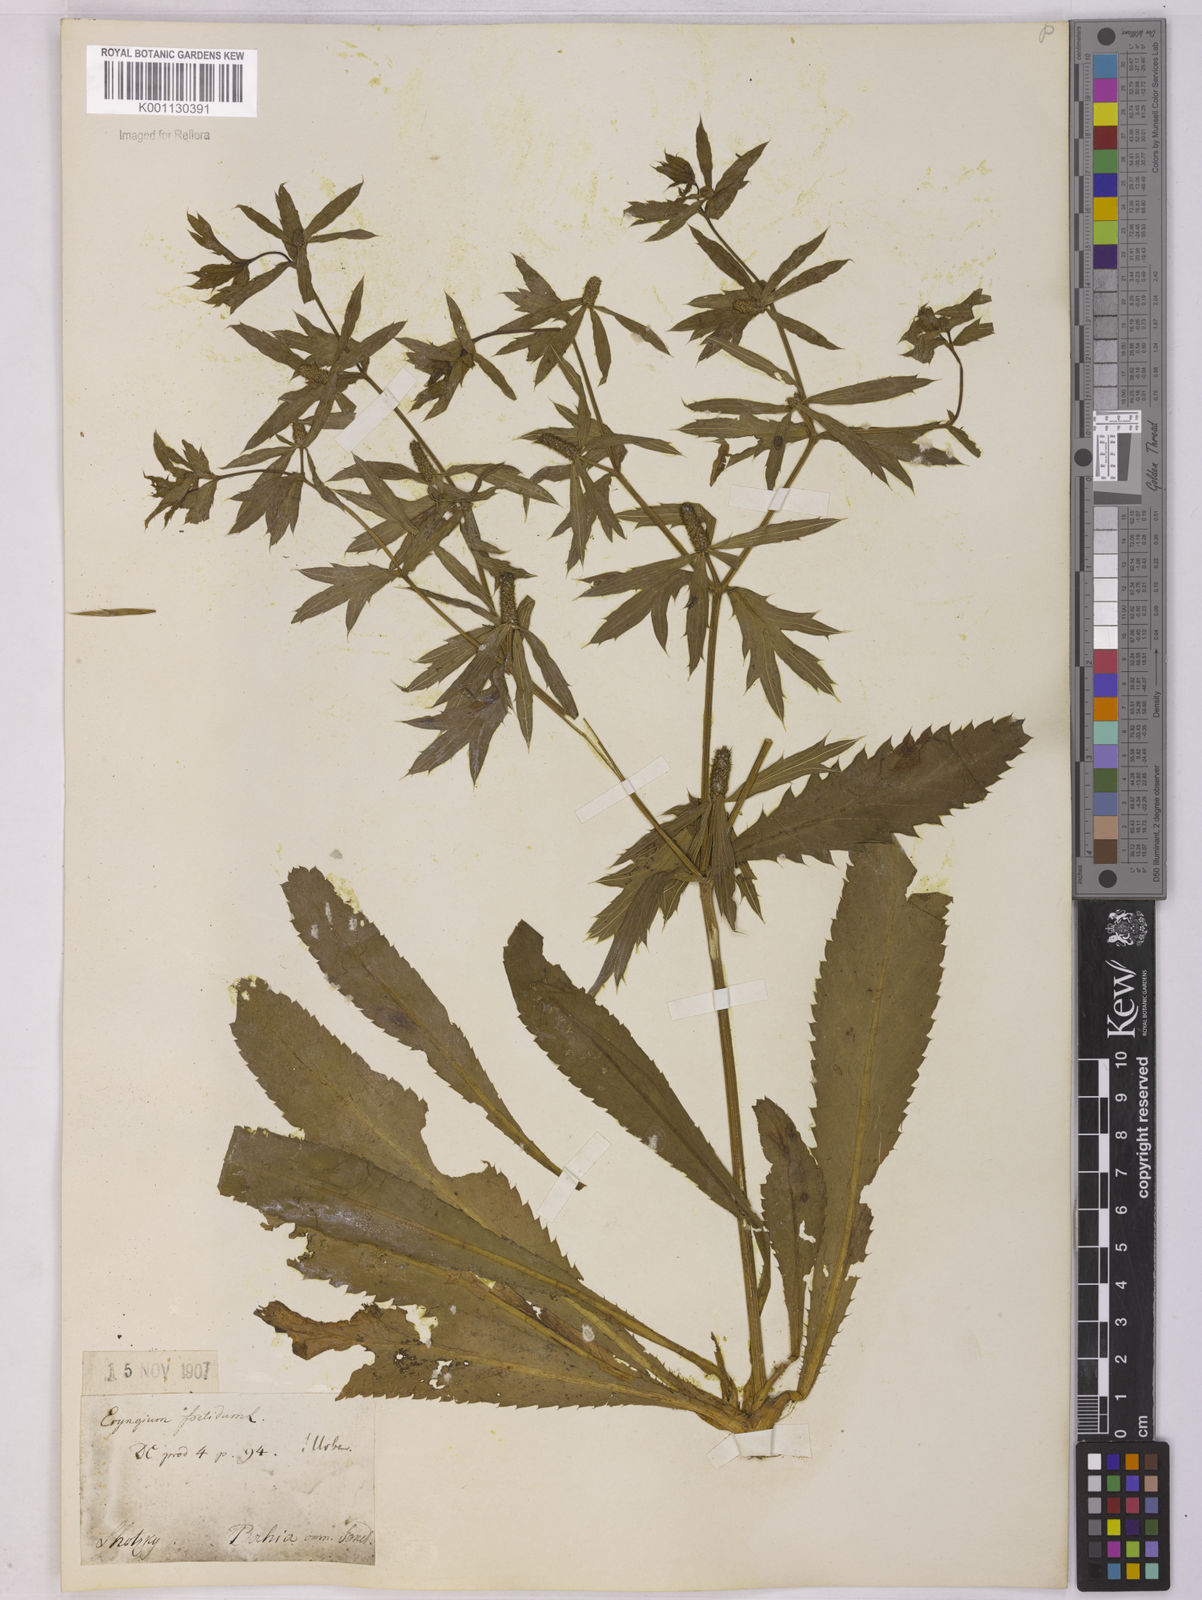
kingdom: Plantae
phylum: Tracheophyta
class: Magnoliopsida
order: Apiales
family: Apiaceae
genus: Eryngium
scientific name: Eryngium foetidum
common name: Fitweed
